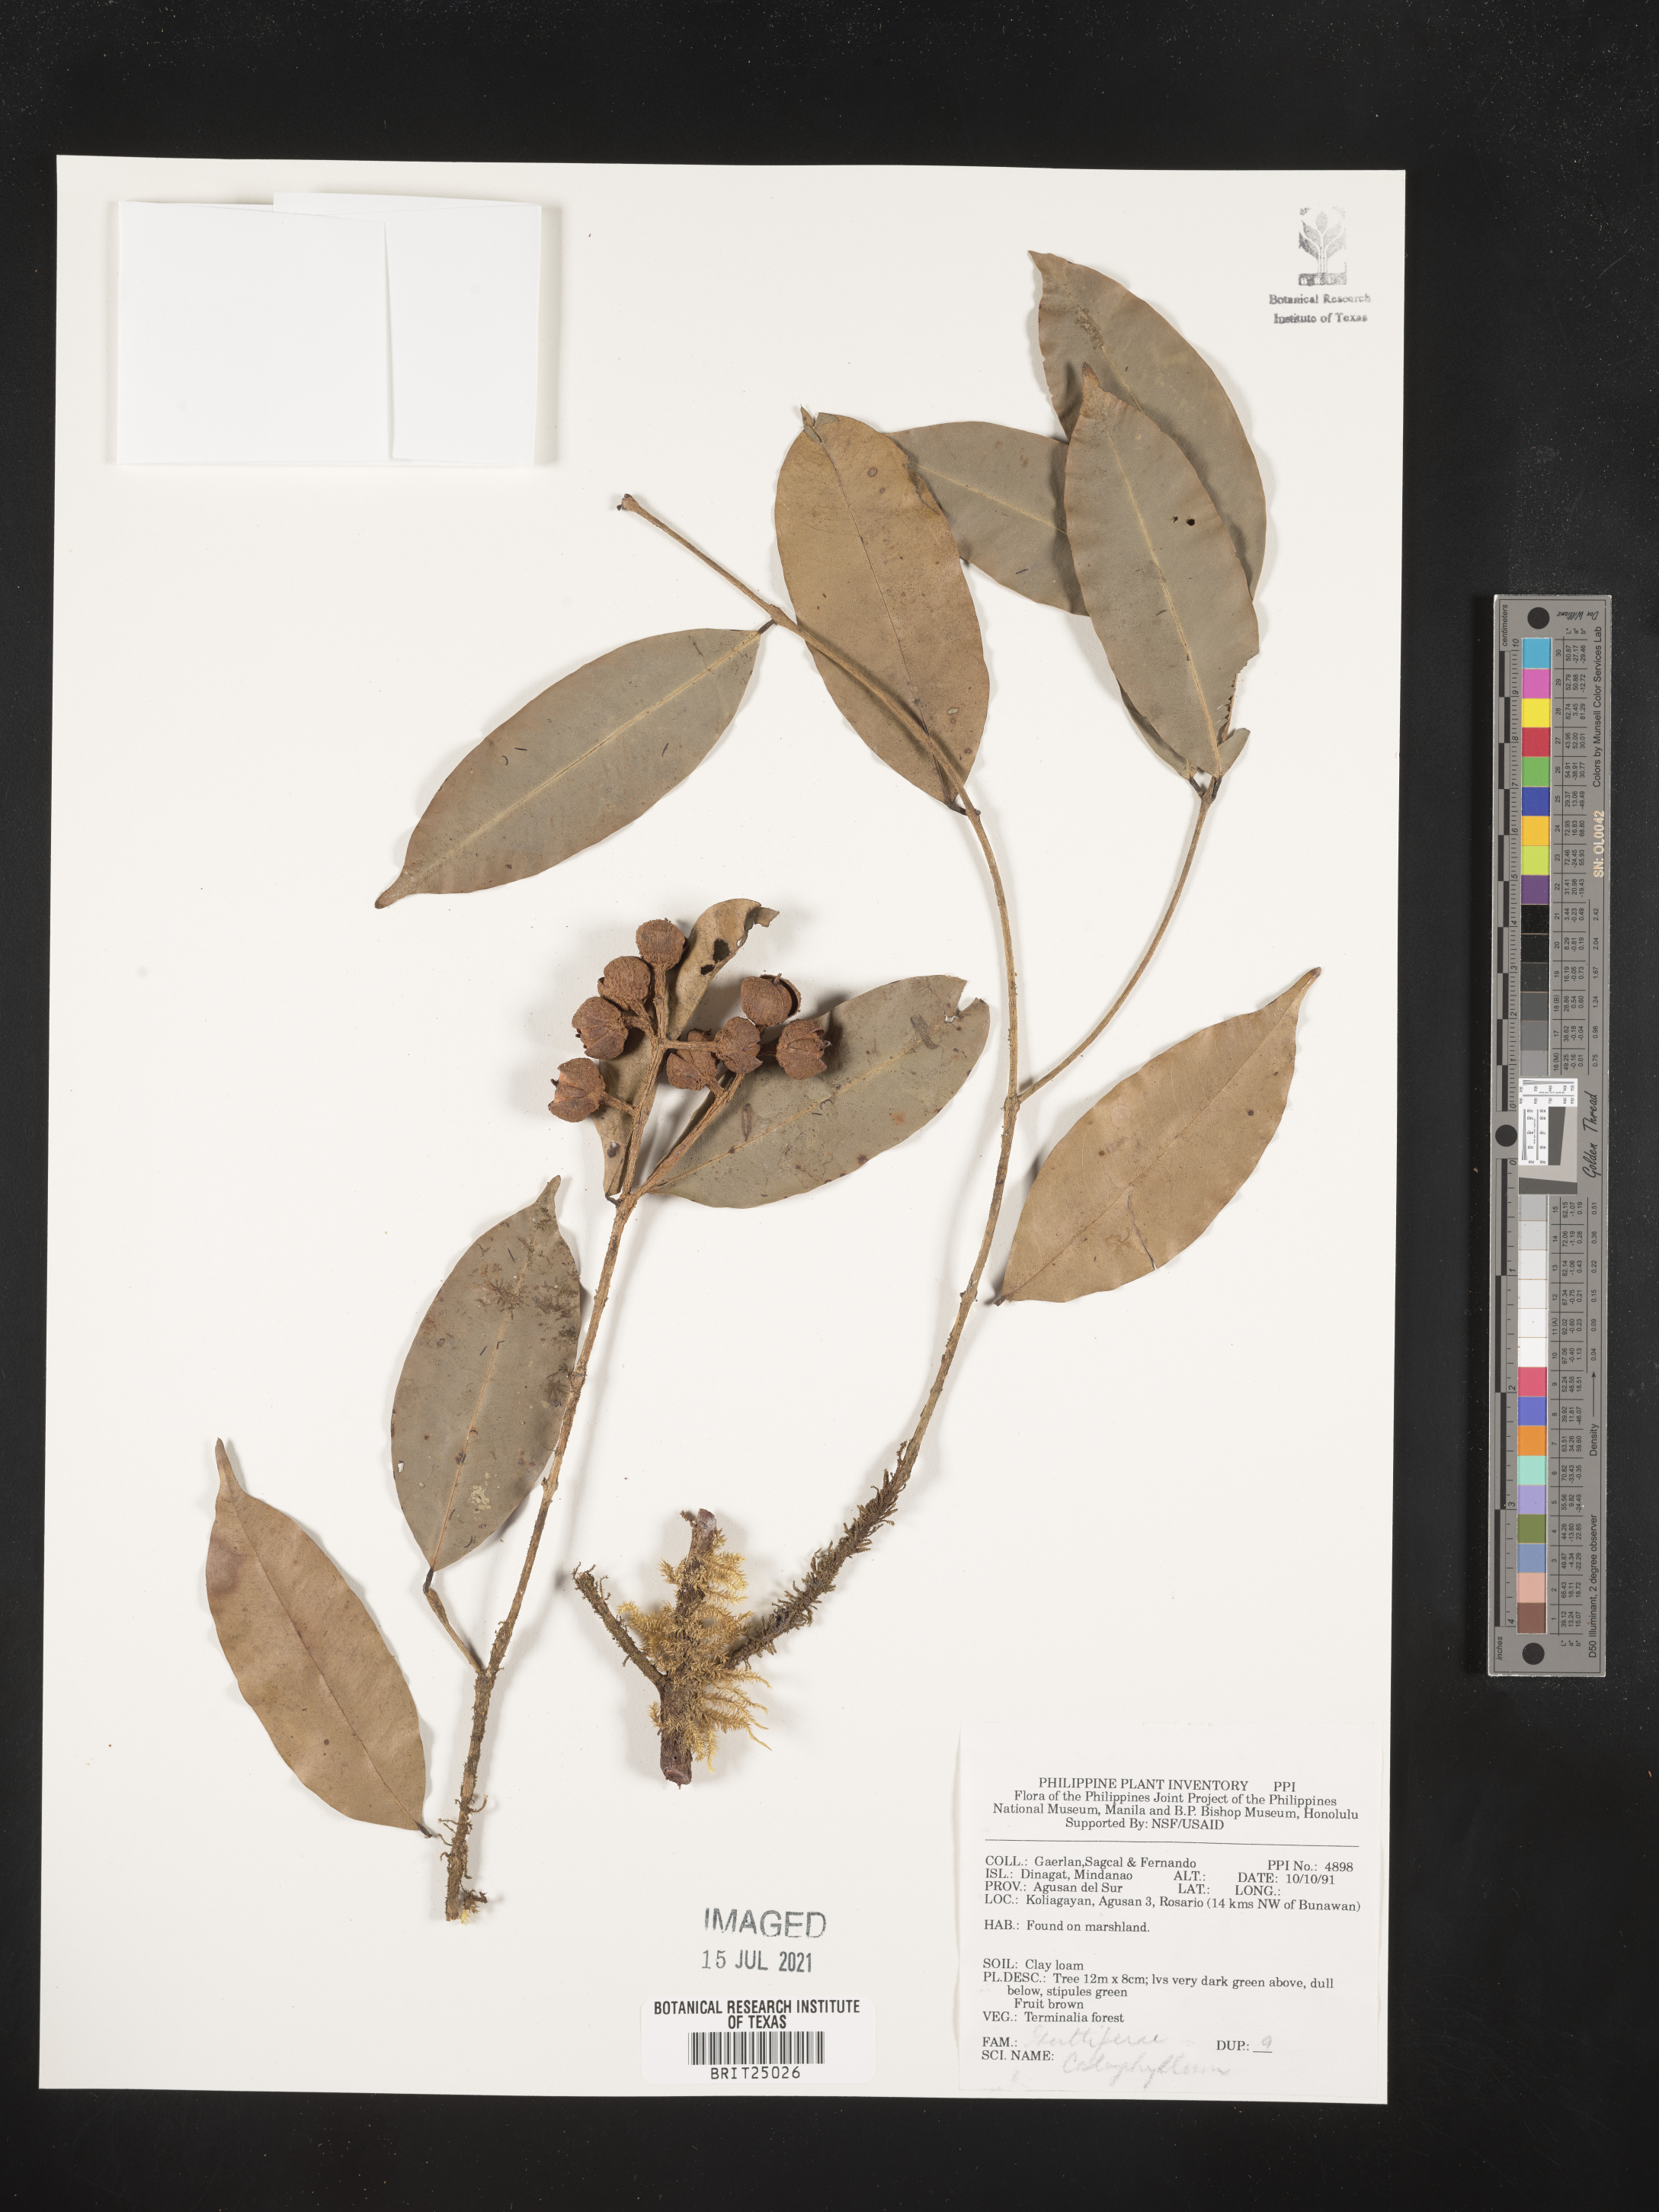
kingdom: Plantae
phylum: Tracheophyta
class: Magnoliopsida
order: Malpighiales
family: Calophyllaceae
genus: Calophyllum
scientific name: Calophyllum
